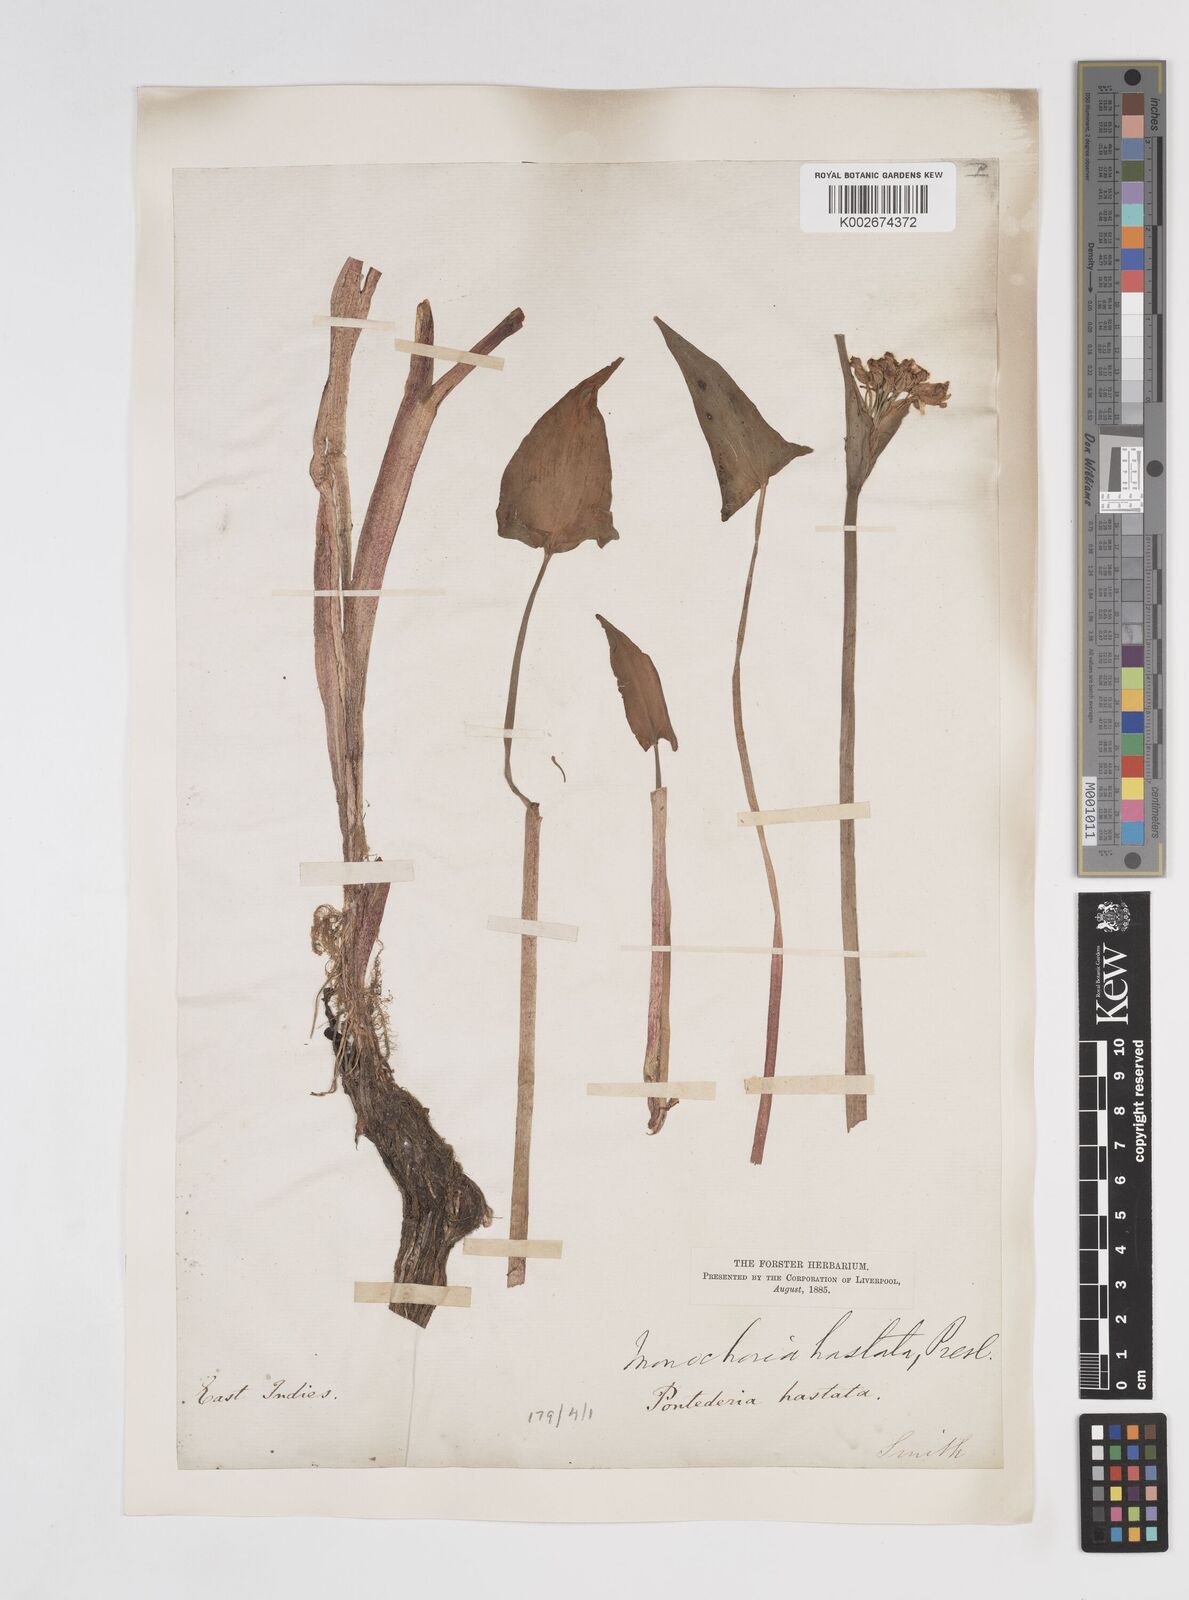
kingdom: Plantae
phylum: Tracheophyta
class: Liliopsida
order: Commelinales
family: Pontederiaceae
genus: Pontederia
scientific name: Pontederia hastata
